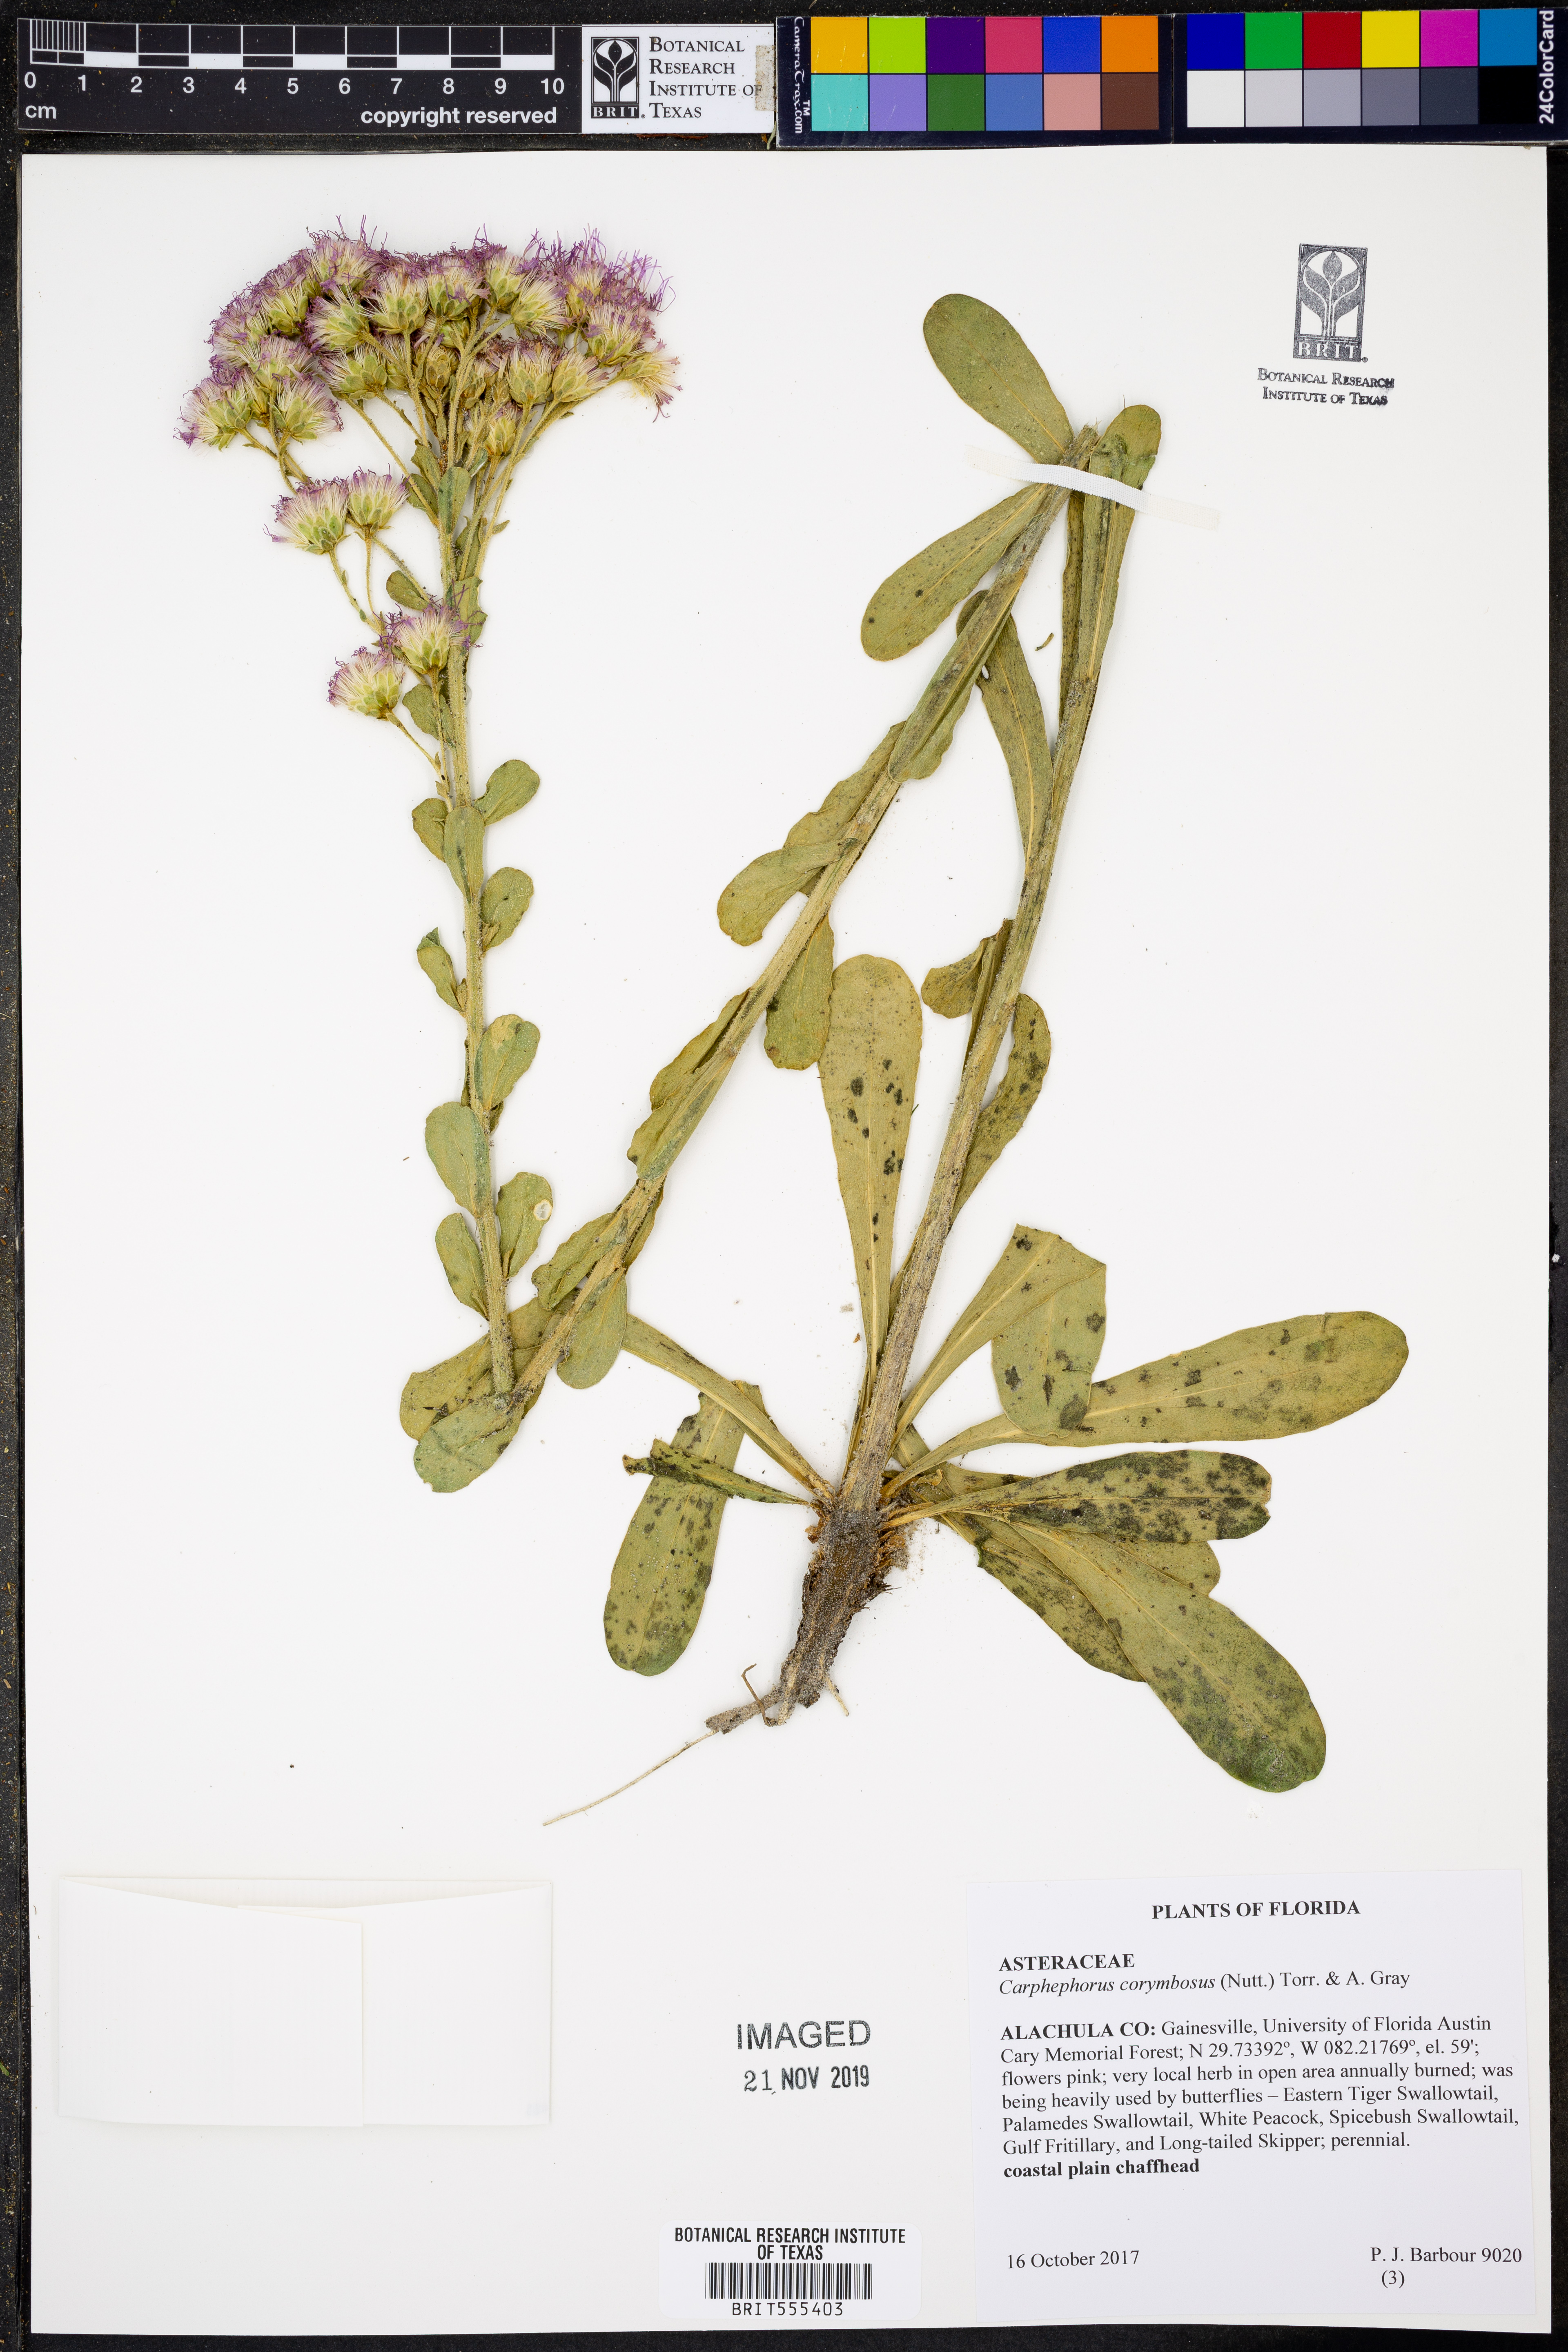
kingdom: Plantae
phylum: Tracheophyta
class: Magnoliopsida
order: Asterales
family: Asteraceae
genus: Carphephorus
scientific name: Carphephorus corymbosus
